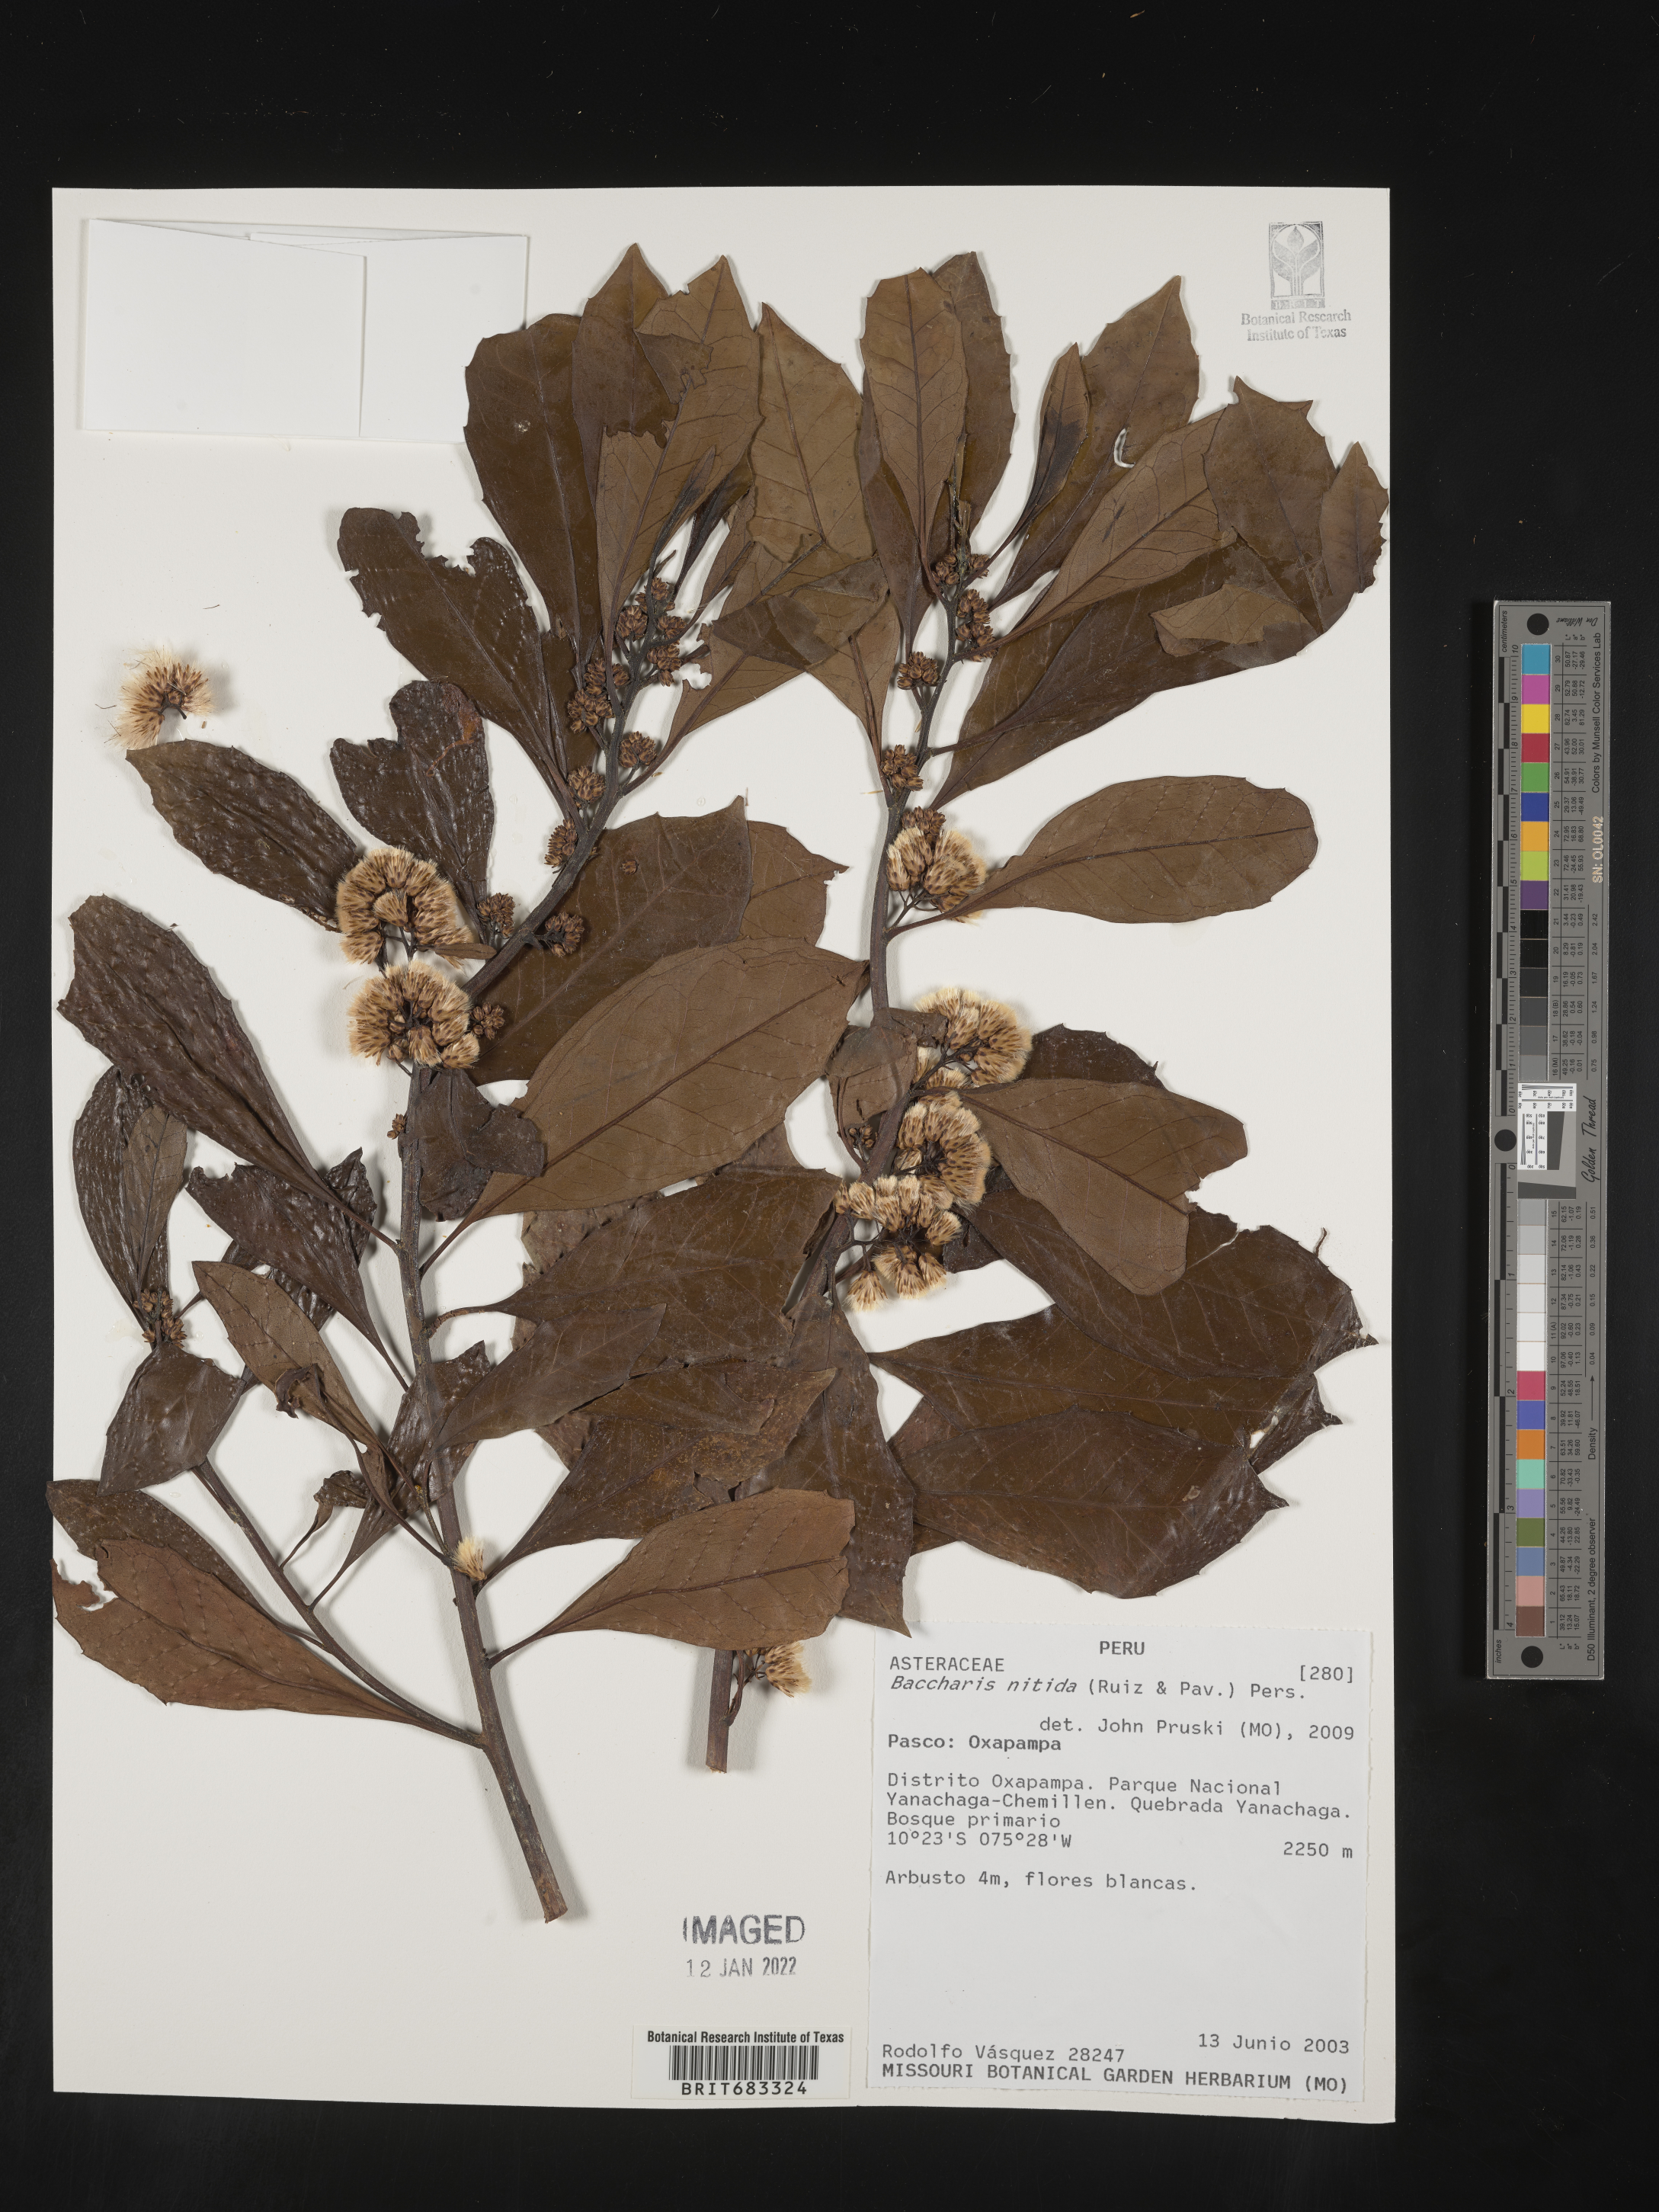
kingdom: Plantae
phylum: Tracheophyta
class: Magnoliopsida
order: Asterales
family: Asteraceae
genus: Baccharis
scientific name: Baccharis
